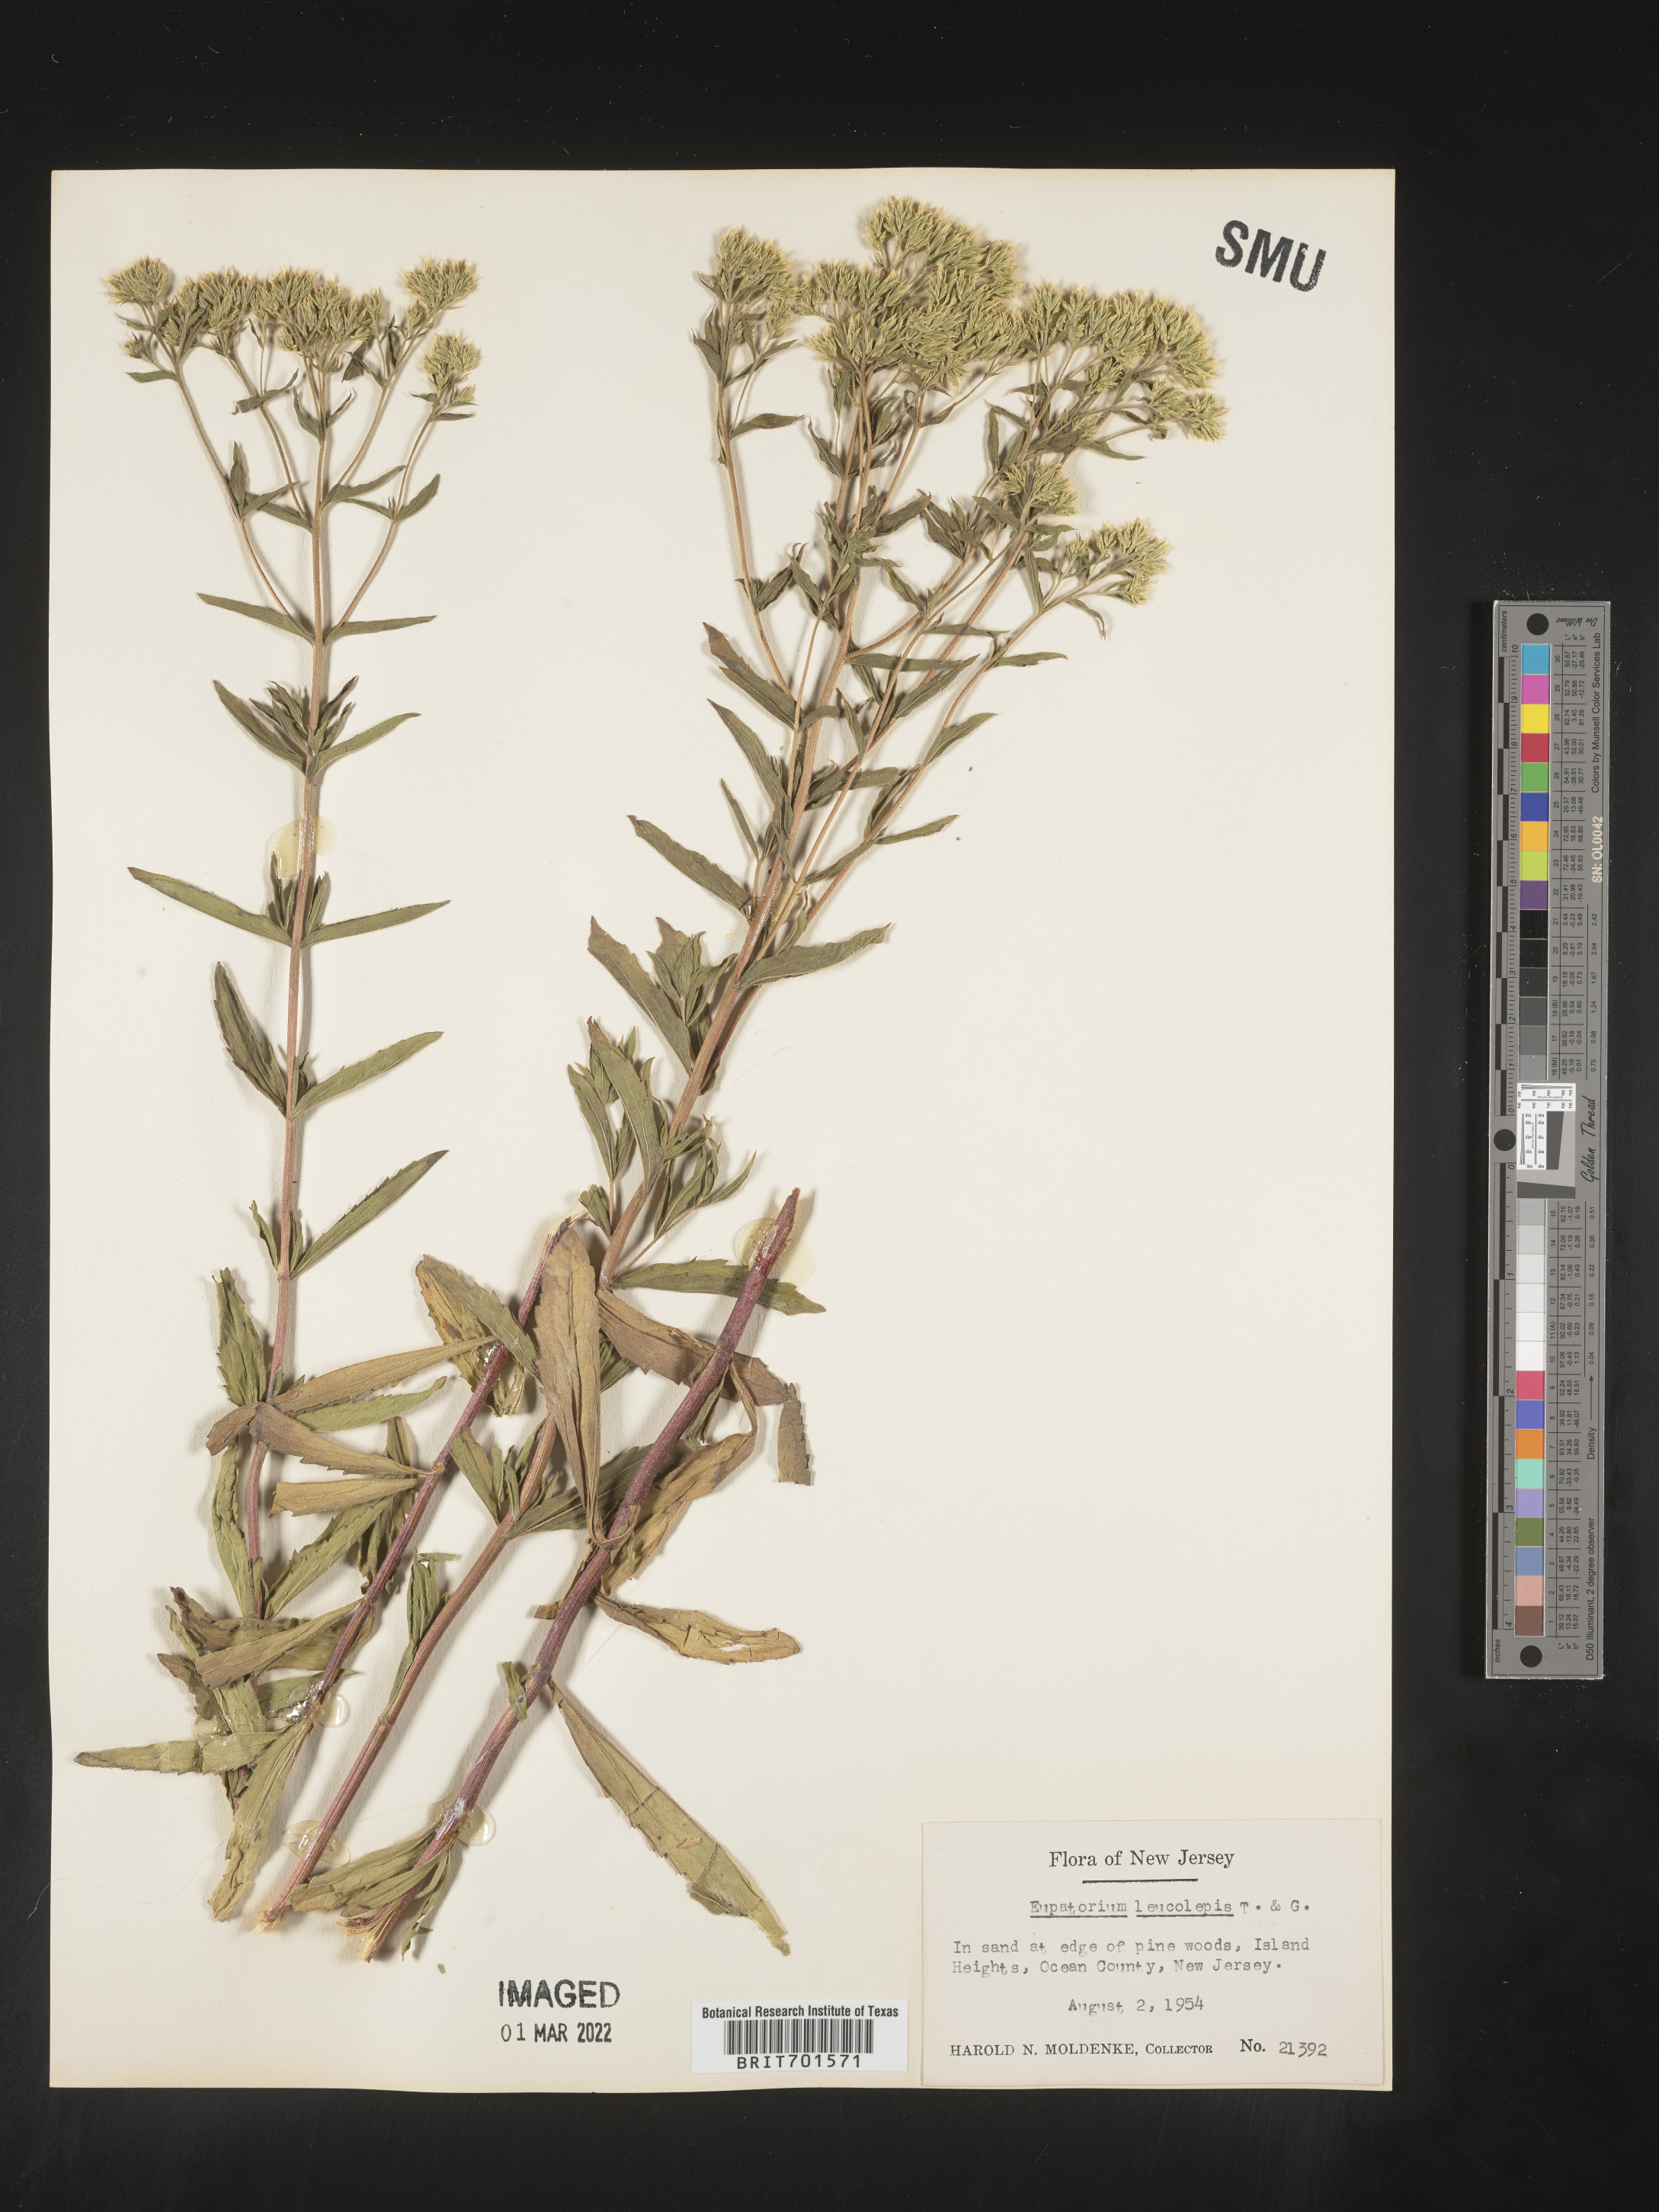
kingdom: Plantae
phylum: Tracheophyta
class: Magnoliopsida
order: Asterales
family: Asteraceae
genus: Eupatorium
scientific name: Eupatorium leucolepis
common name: Justiceweed
